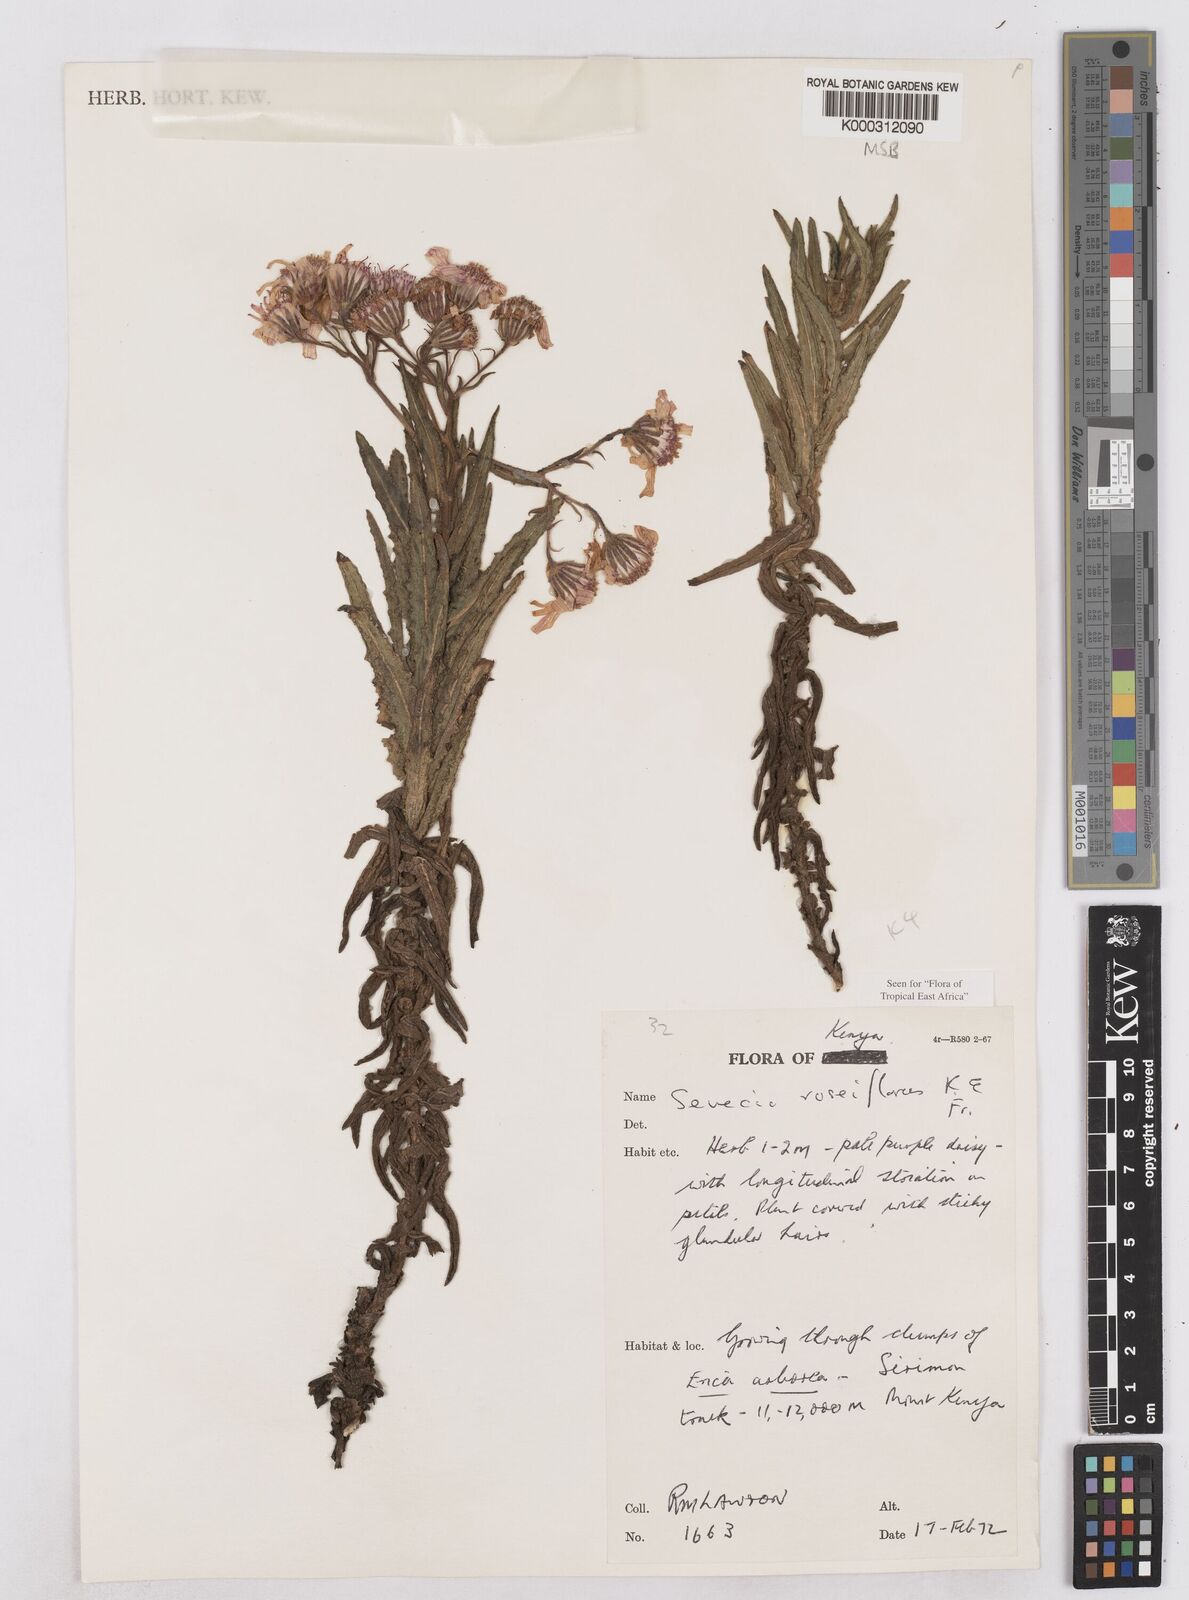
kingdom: Plantae
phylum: Tracheophyta
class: Magnoliopsida
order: Asterales
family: Asteraceae
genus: Senecio
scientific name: Senecio roseiflorus
